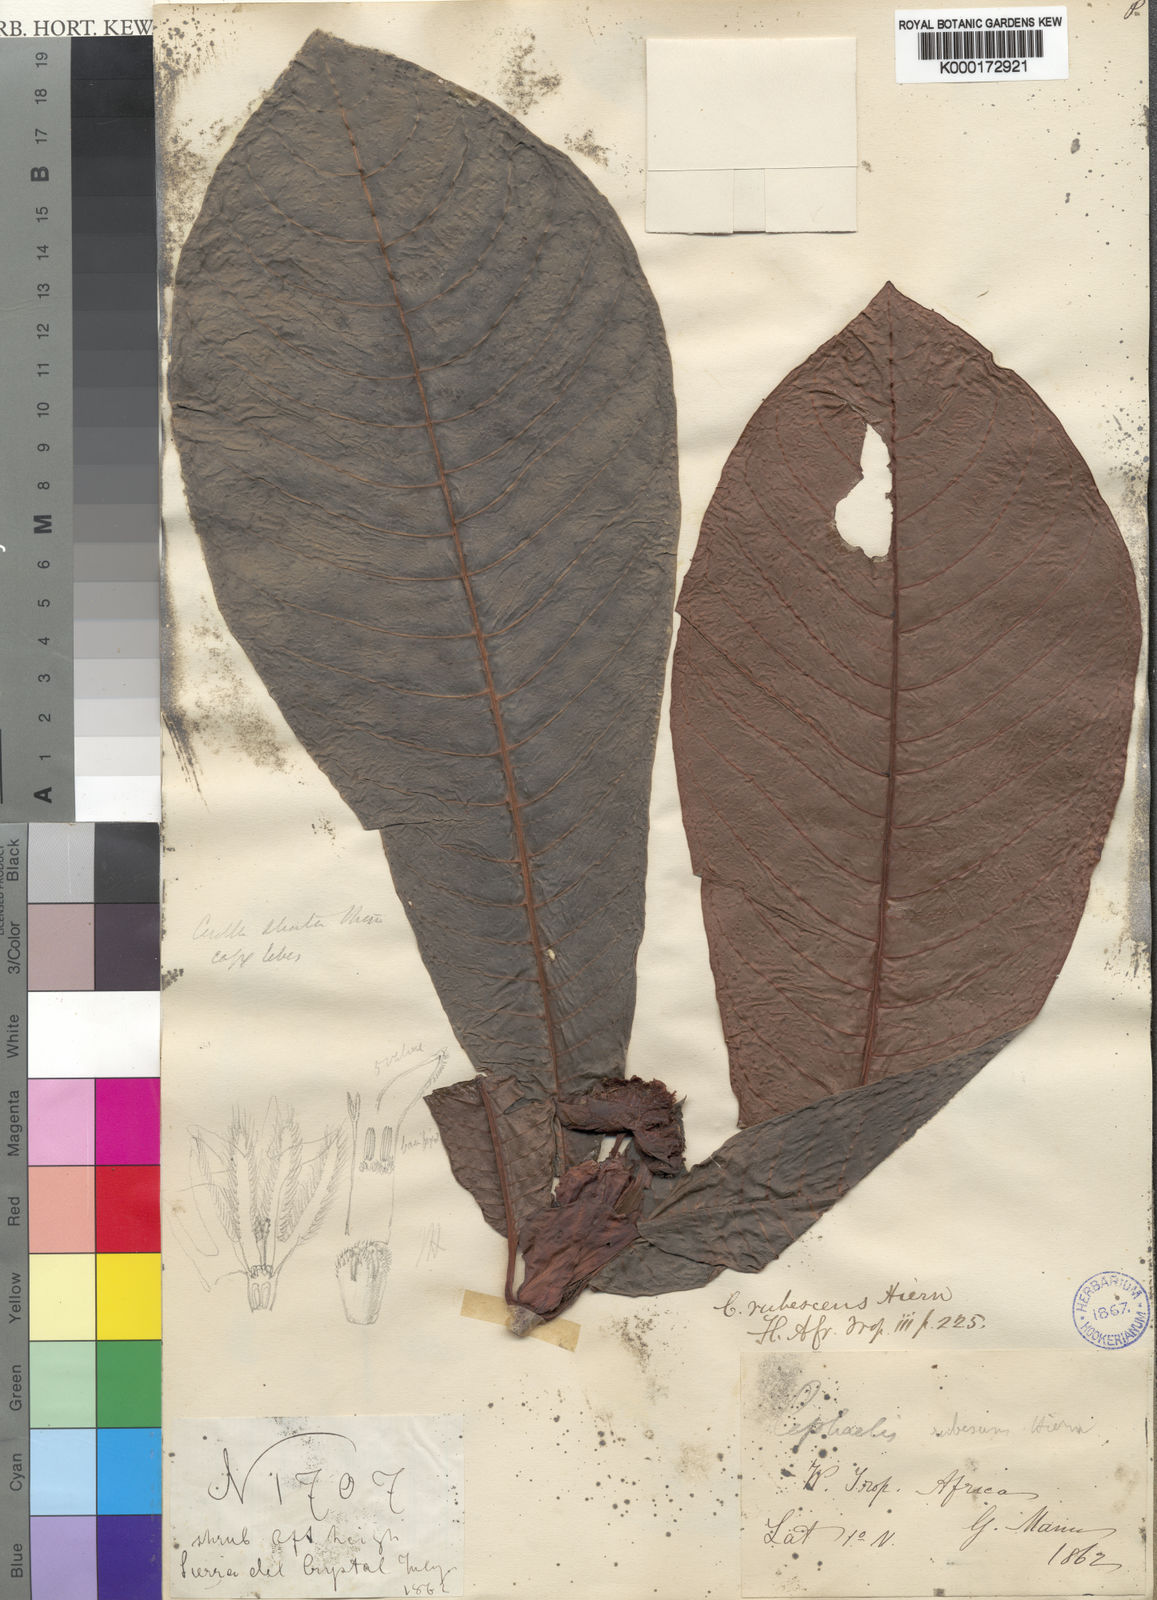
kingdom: Plantae
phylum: Tracheophyta
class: Magnoliopsida
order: Gentianales
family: Rubiaceae
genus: Psychotria
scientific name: Psychotria
